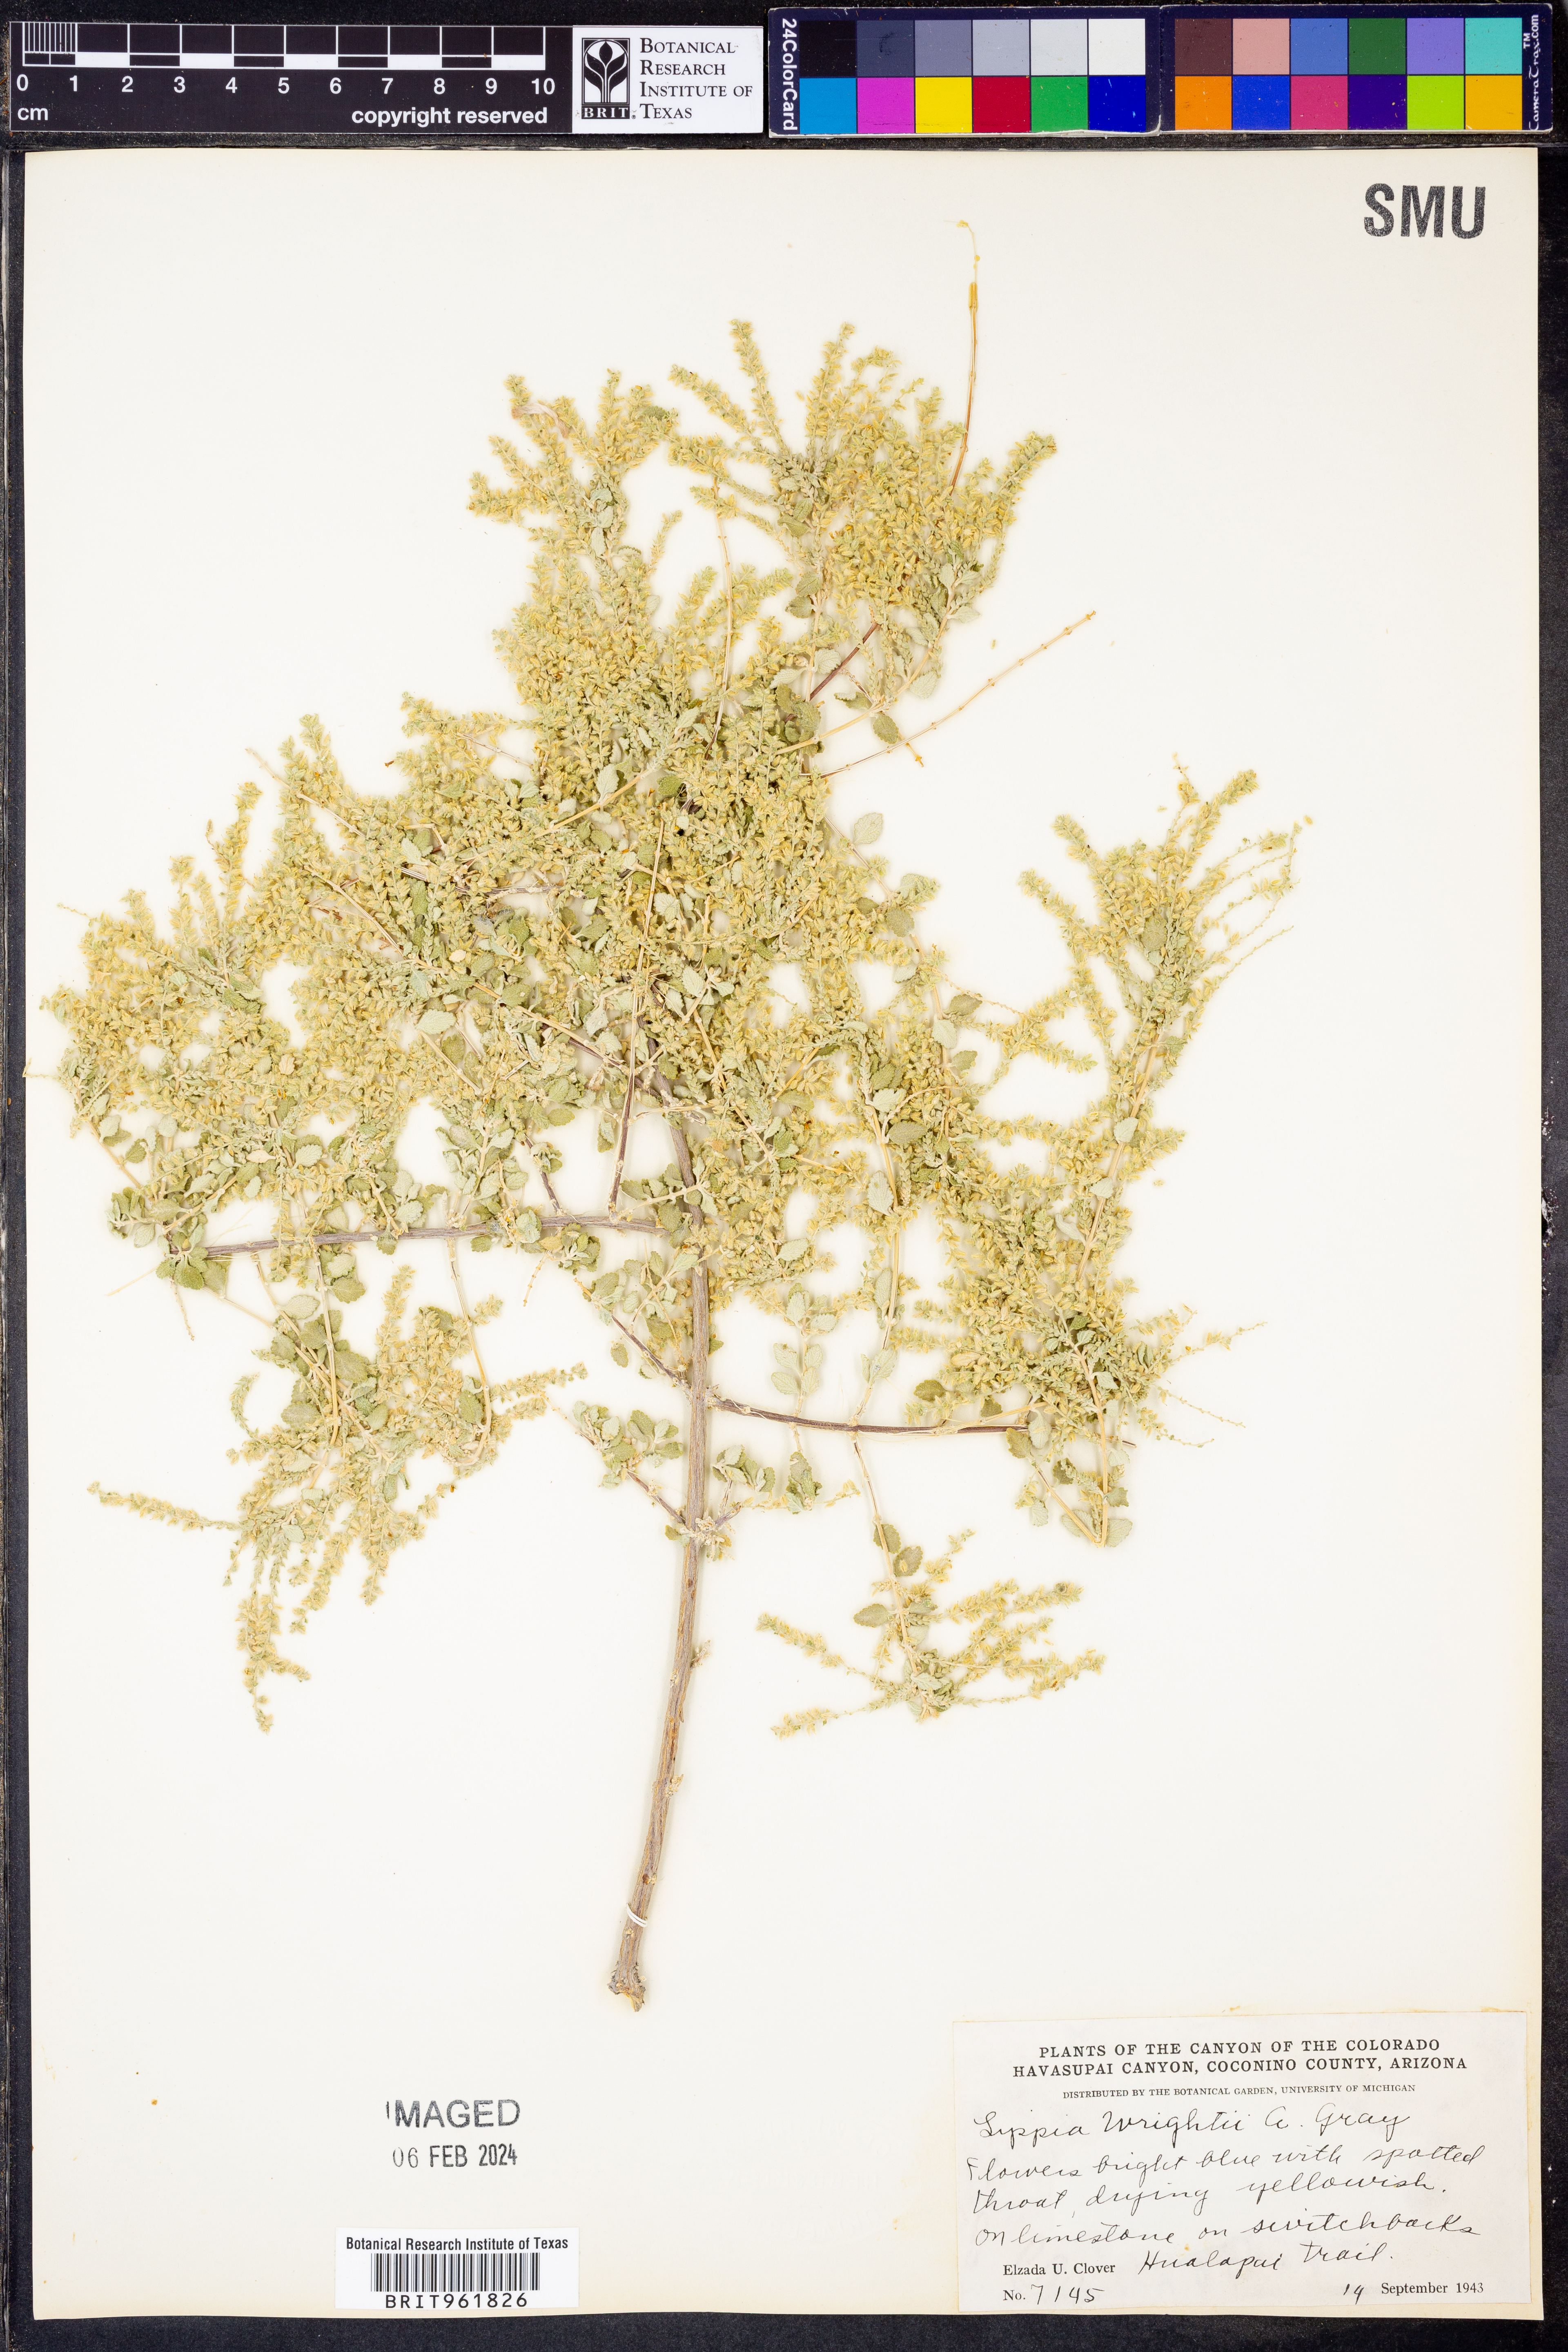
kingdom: Plantae
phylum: Tracheophyta
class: Magnoliopsida
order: Lamiales
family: Verbenaceae
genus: Aloysia
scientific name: Aloysia wrightii
